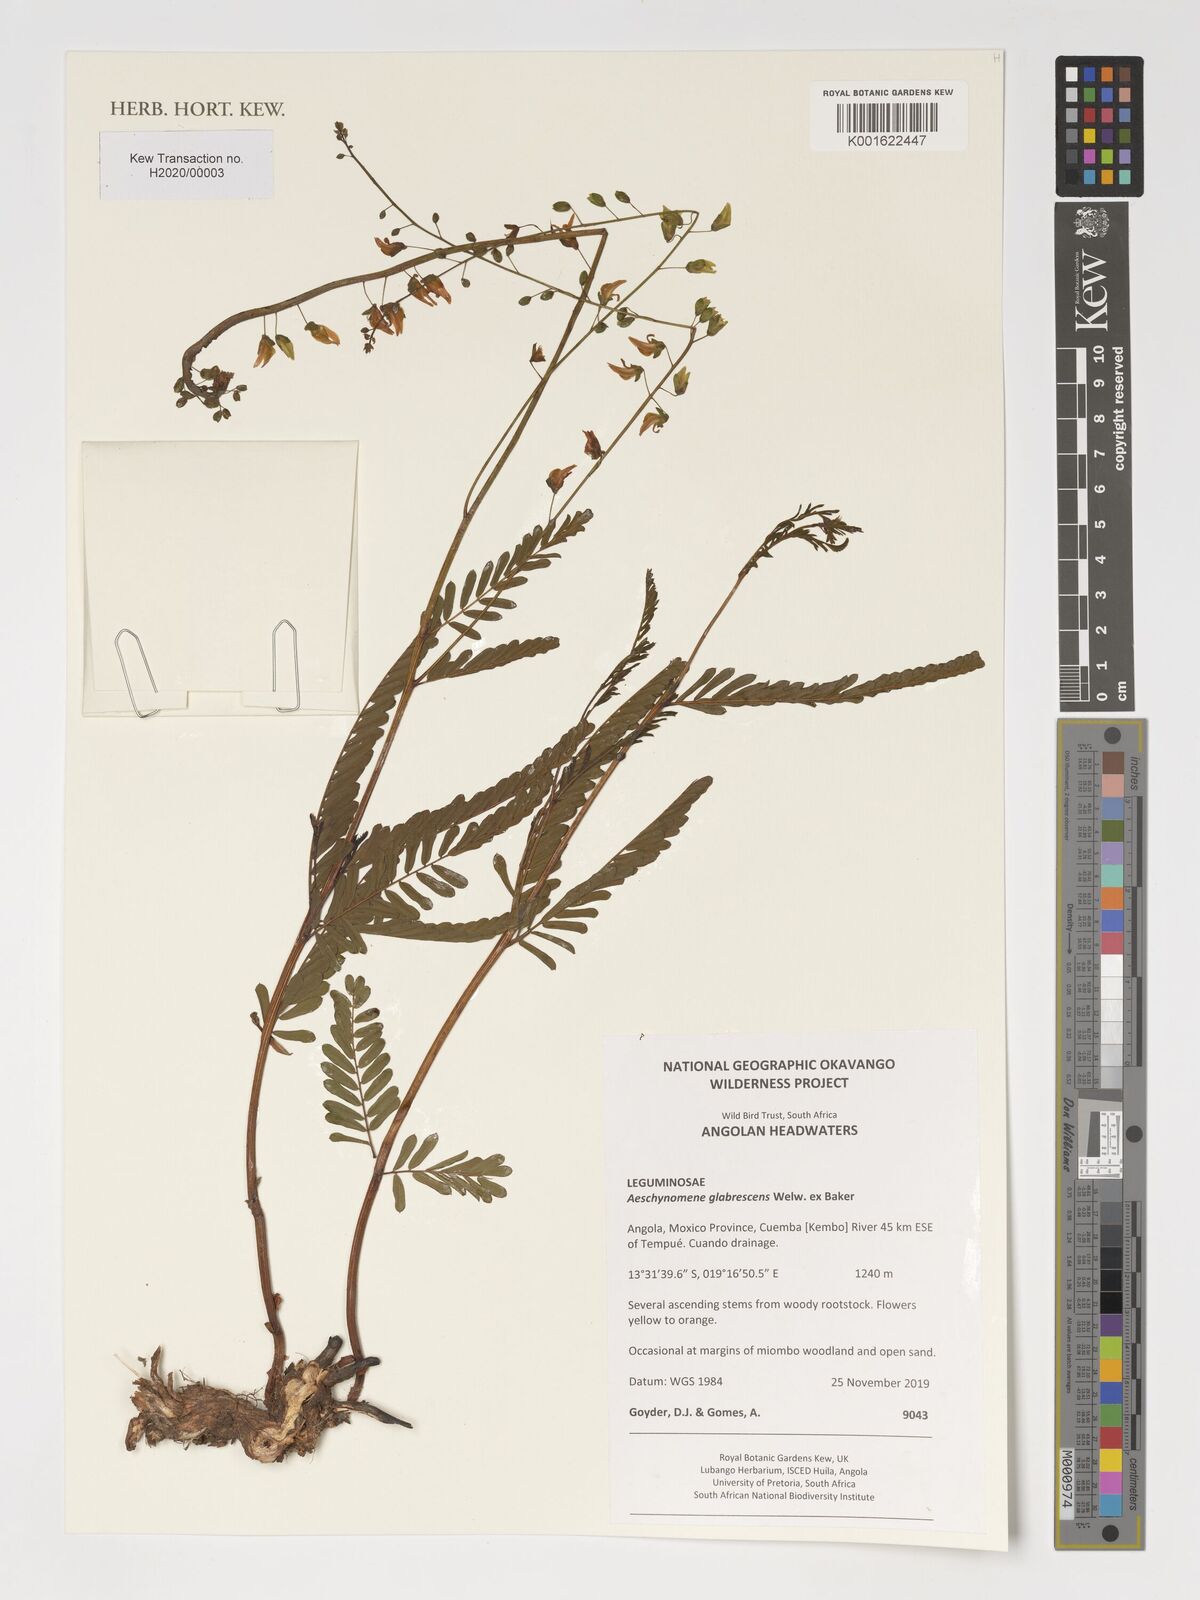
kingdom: Plantae
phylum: Tracheophyta
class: Magnoliopsida
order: Fabales
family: Fabaceae
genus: Aeschynomene
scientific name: Aeschynomene glabrescens
